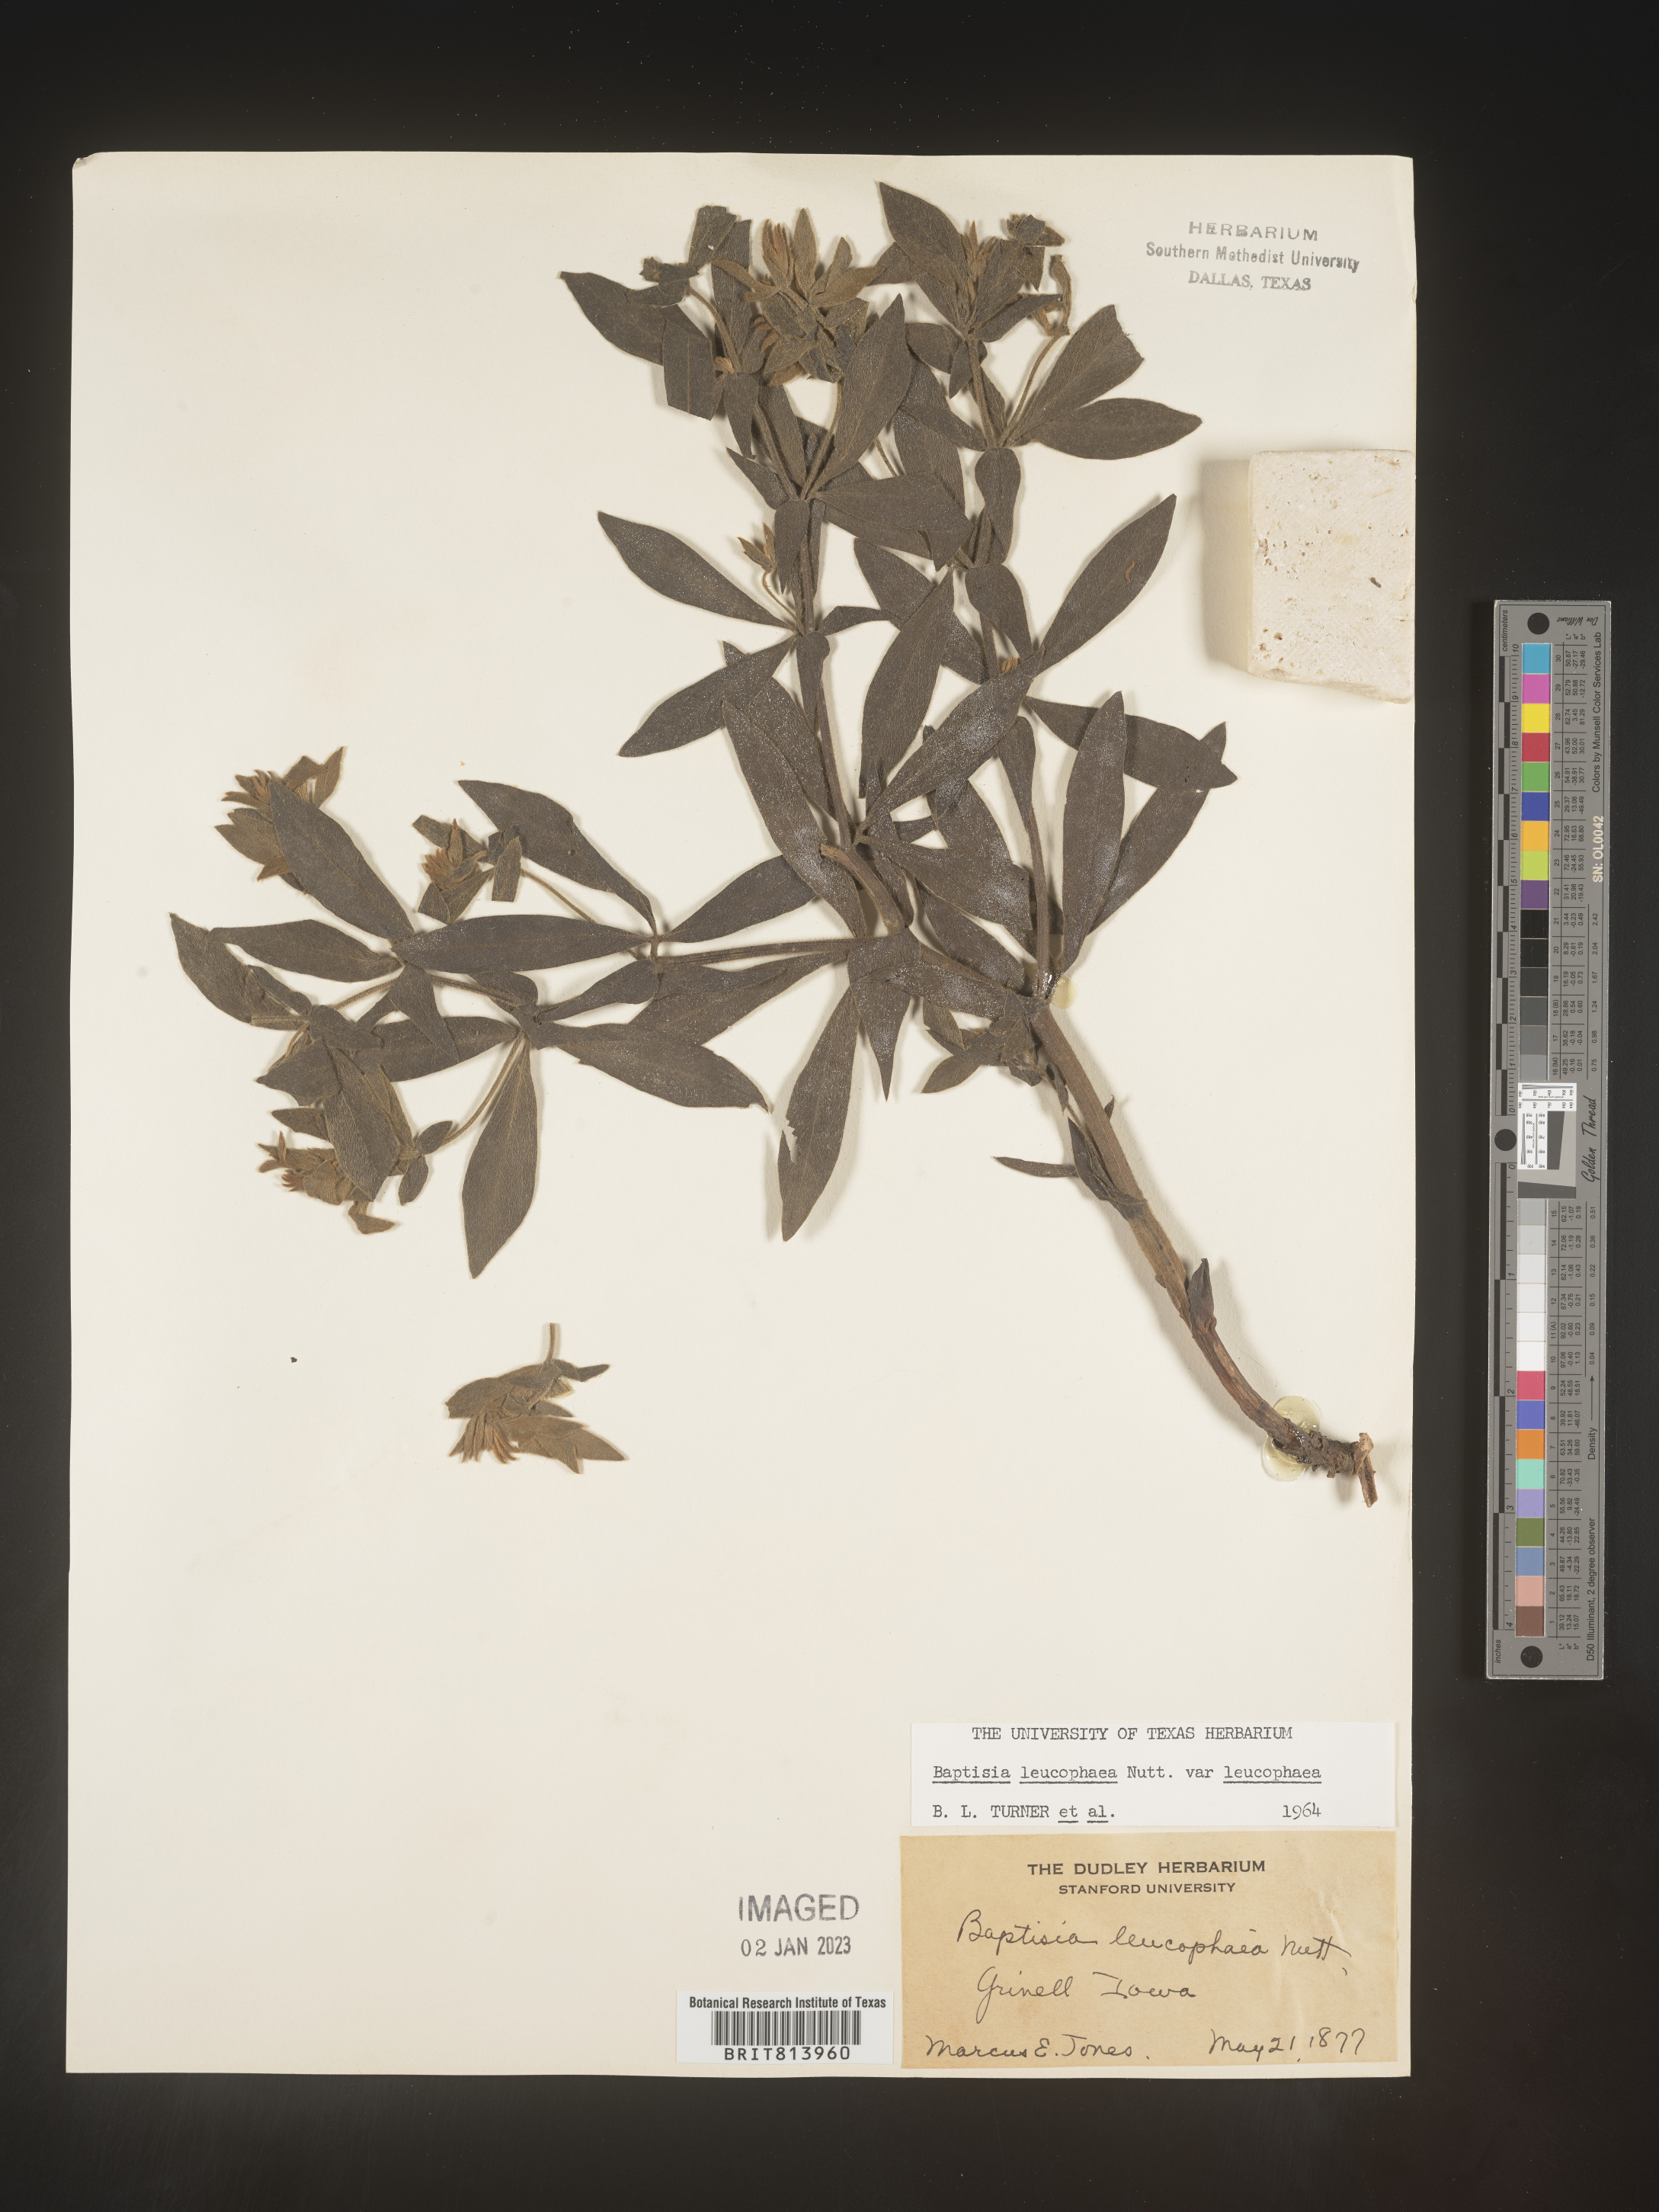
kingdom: Plantae
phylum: Tracheophyta
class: Magnoliopsida
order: Fabales
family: Fabaceae
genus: Baptisia
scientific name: Baptisia bracteata
